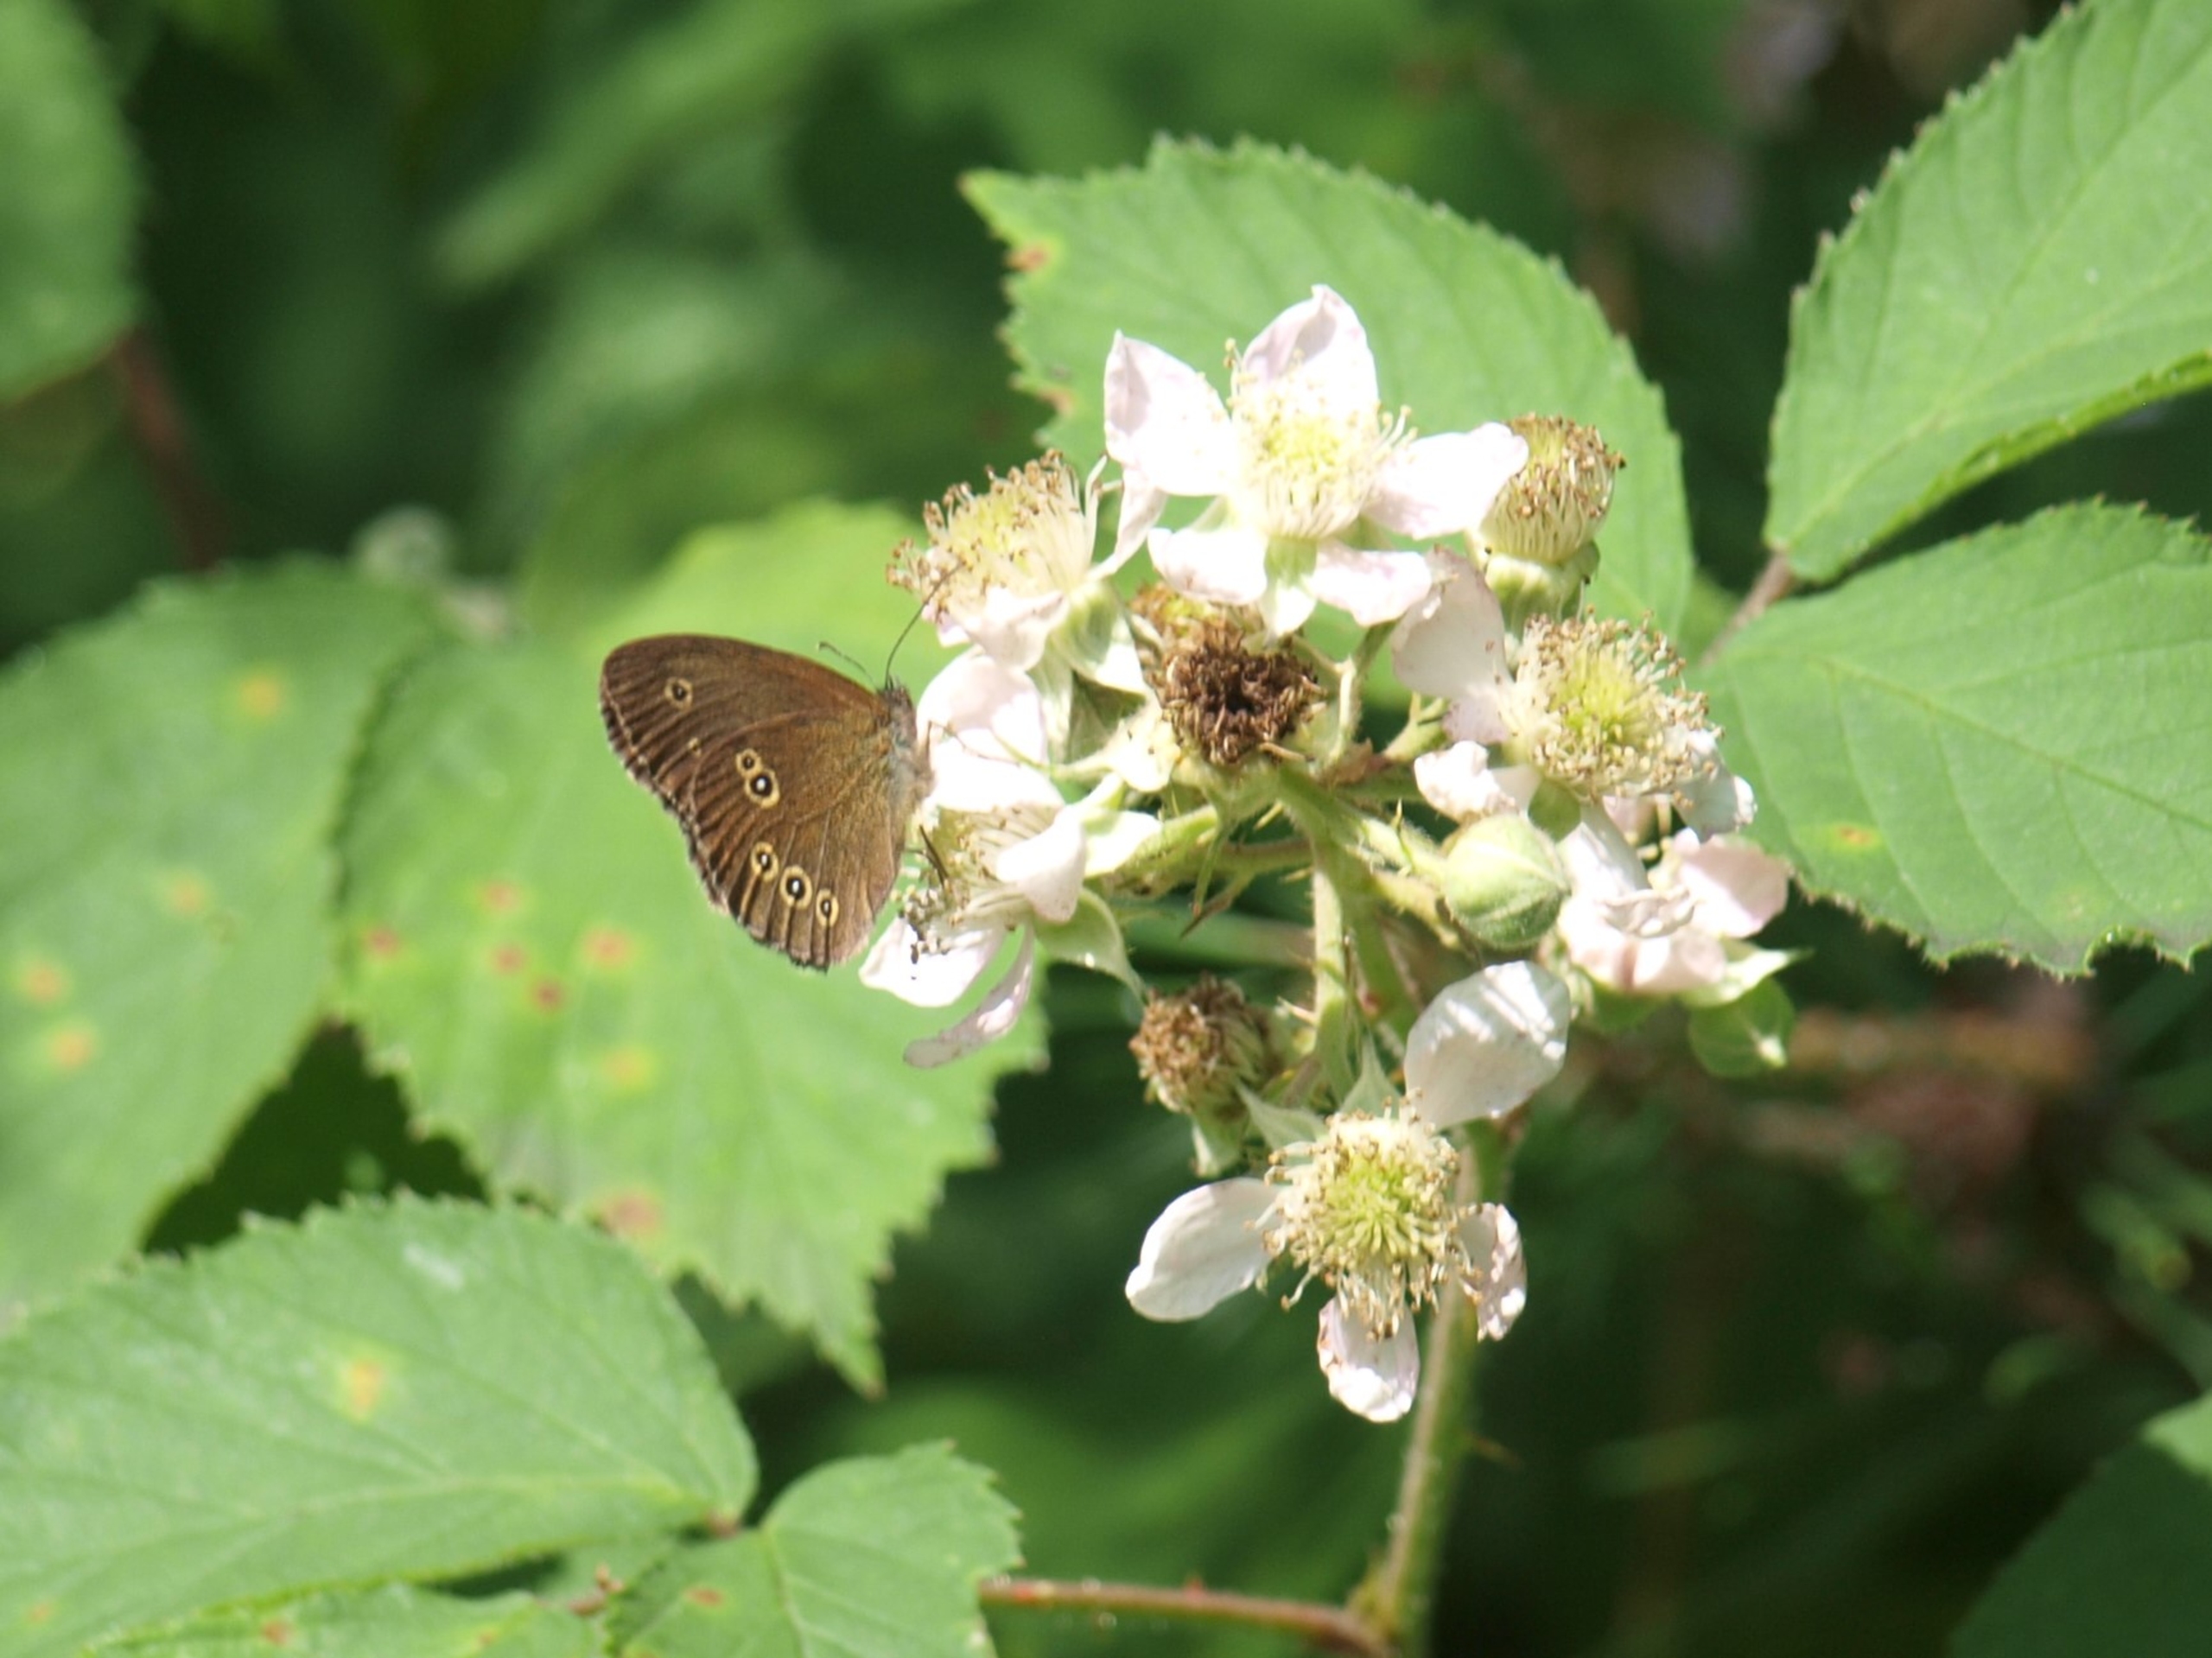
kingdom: Animalia
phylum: Arthropoda
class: Insecta
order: Lepidoptera
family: Nymphalidae
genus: Aphantopus
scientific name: Aphantopus hyperantus
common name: Engrandøje
